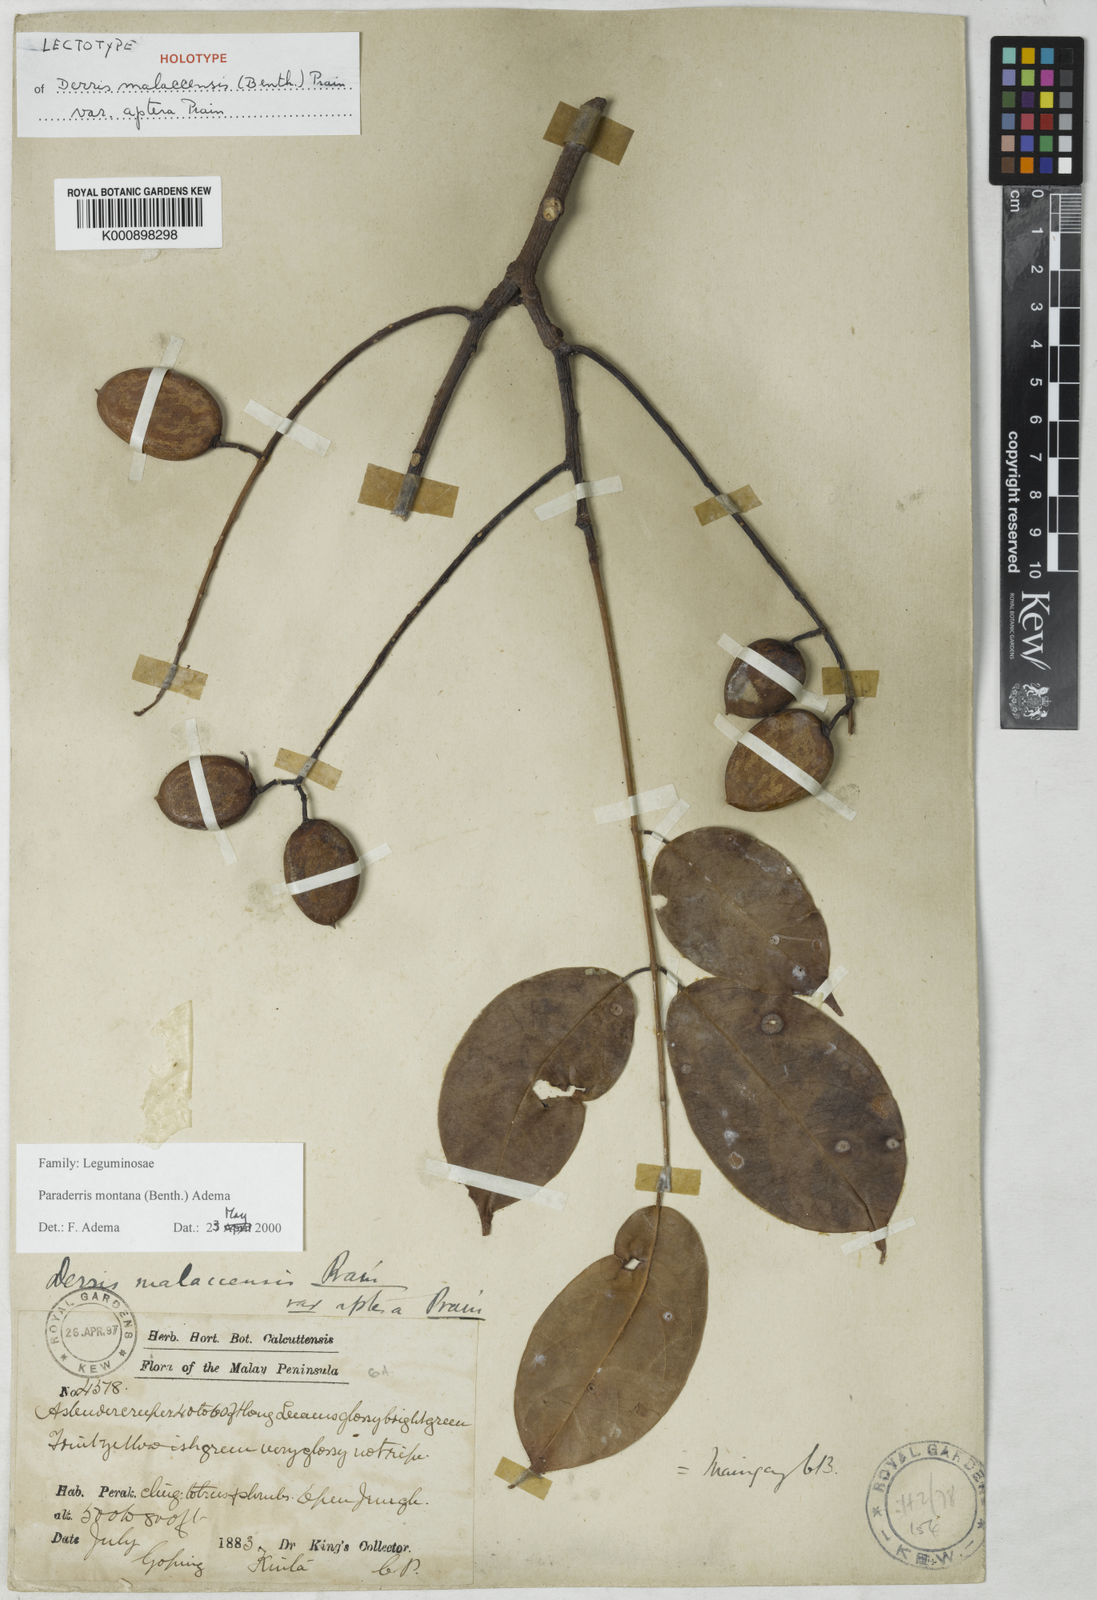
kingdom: Plantae
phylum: Tracheophyta
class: Magnoliopsida
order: Fabales
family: Fabaceae
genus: Derris
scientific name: Derris montana
